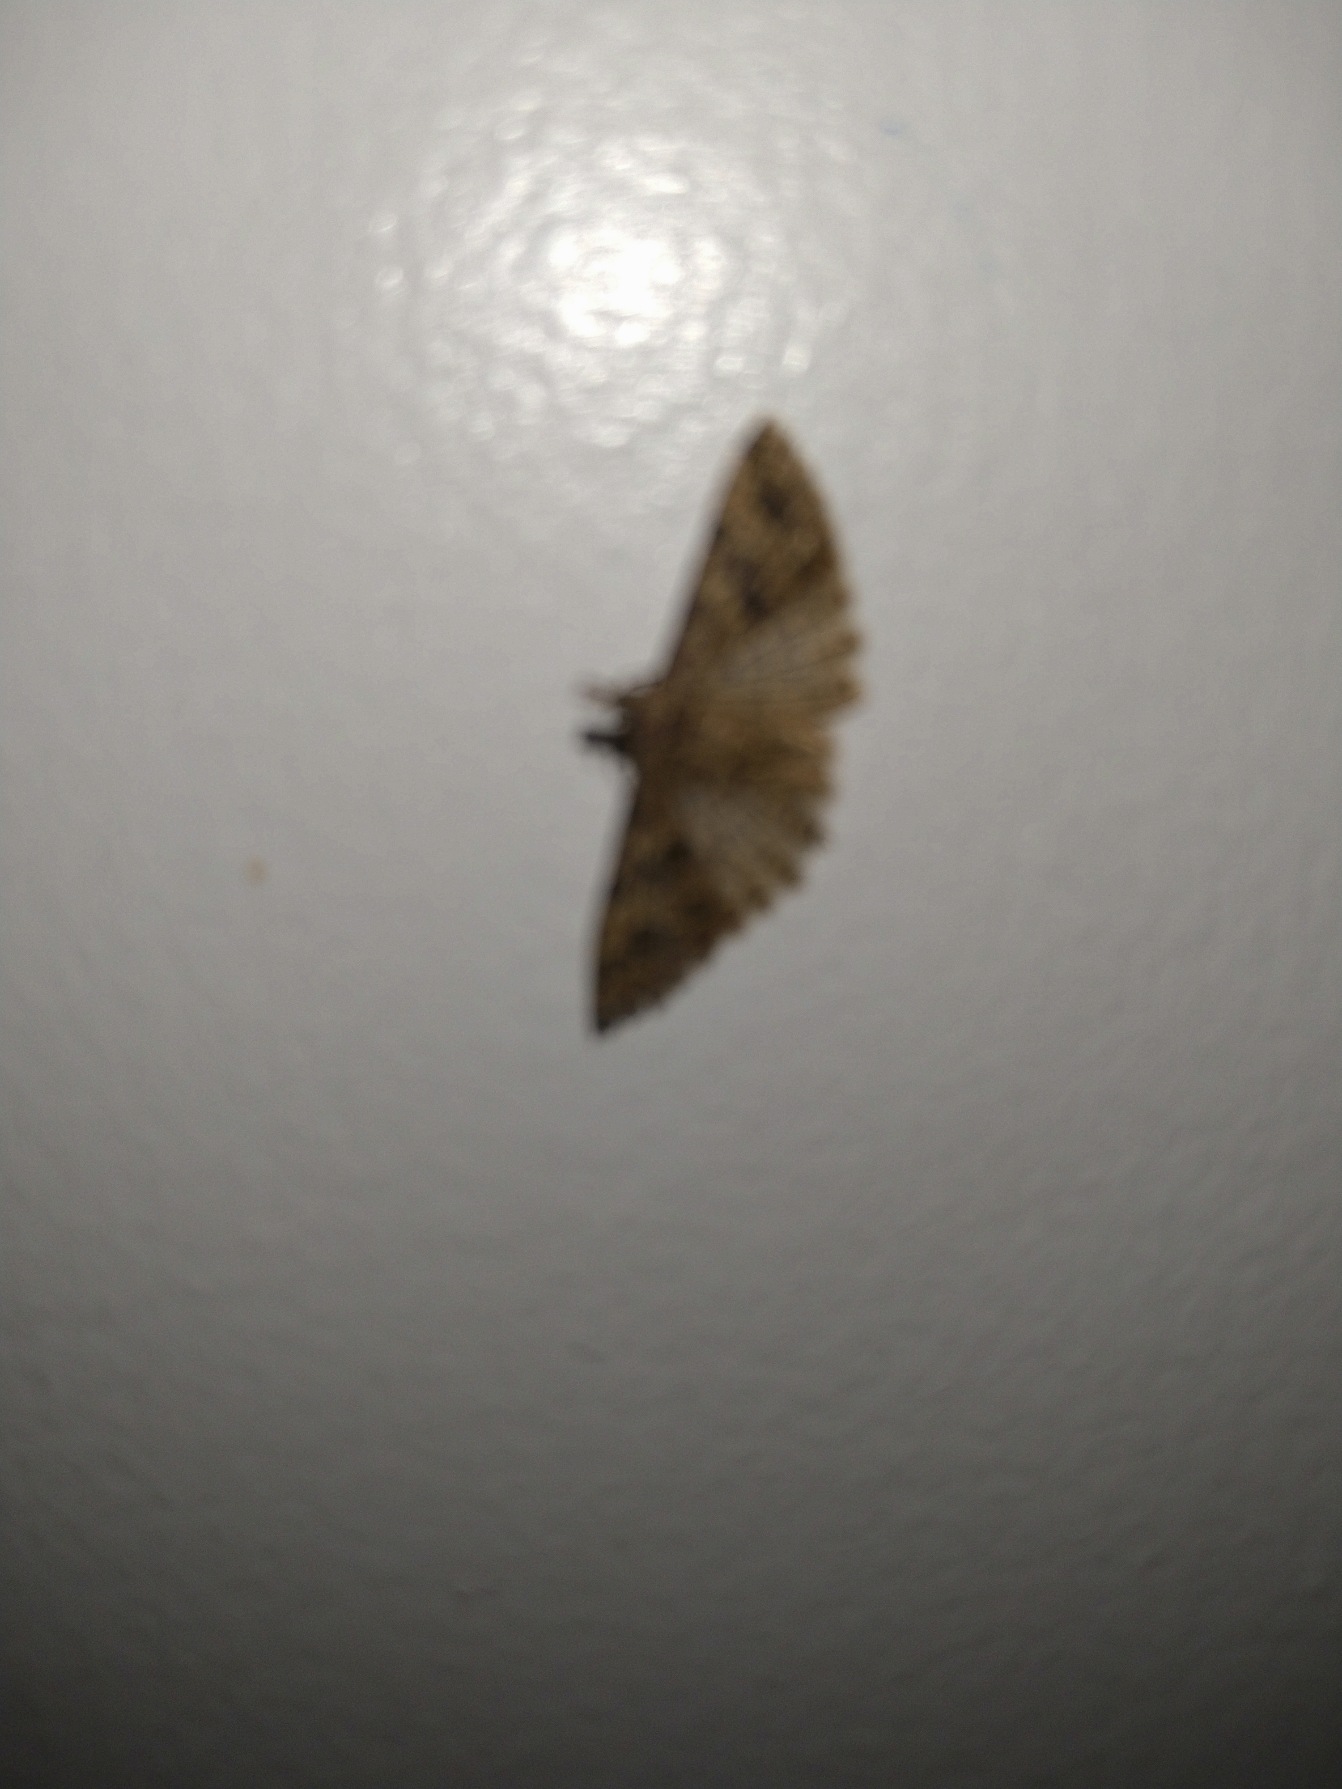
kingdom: Animalia
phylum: Arthropoda
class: Insecta
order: Lepidoptera
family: Alucitidae
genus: Alucita
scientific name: Alucita hexadactyla
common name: Kaprifoliefjermøl
